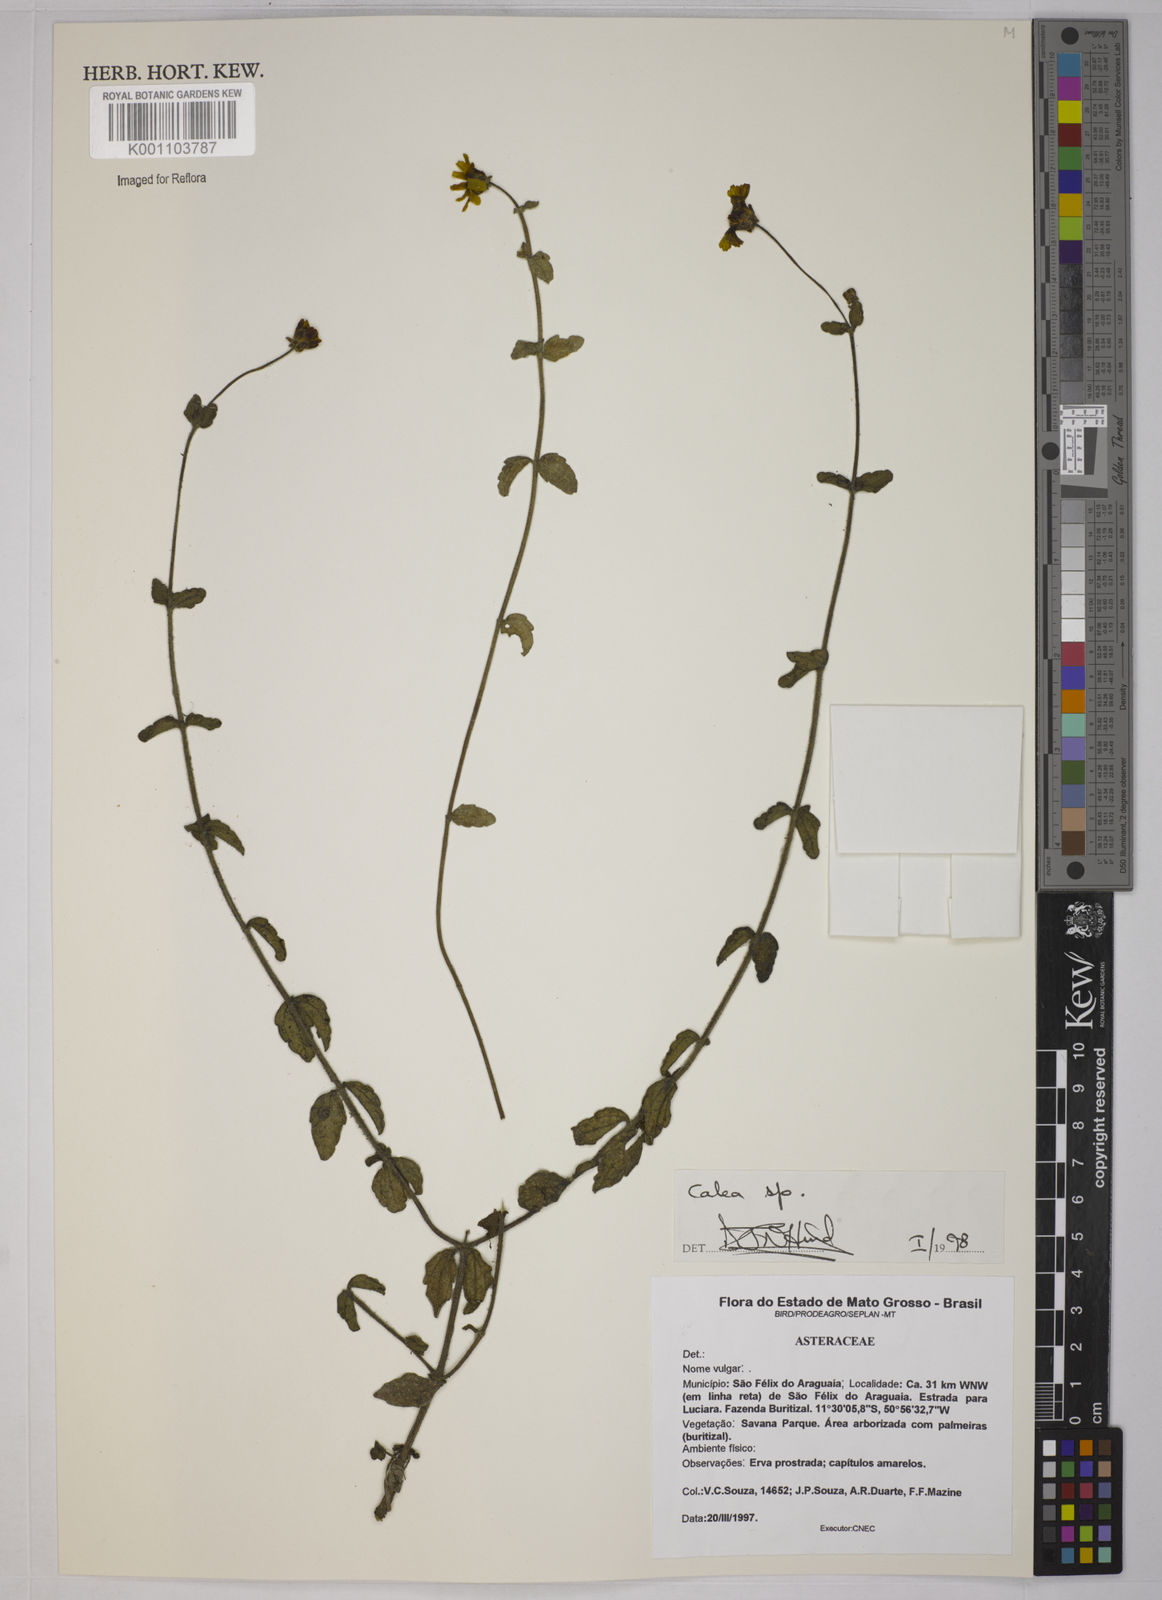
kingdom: Plantae
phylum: Tracheophyta
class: Magnoliopsida
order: Asterales
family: Asteraceae
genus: Calea
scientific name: Calea
